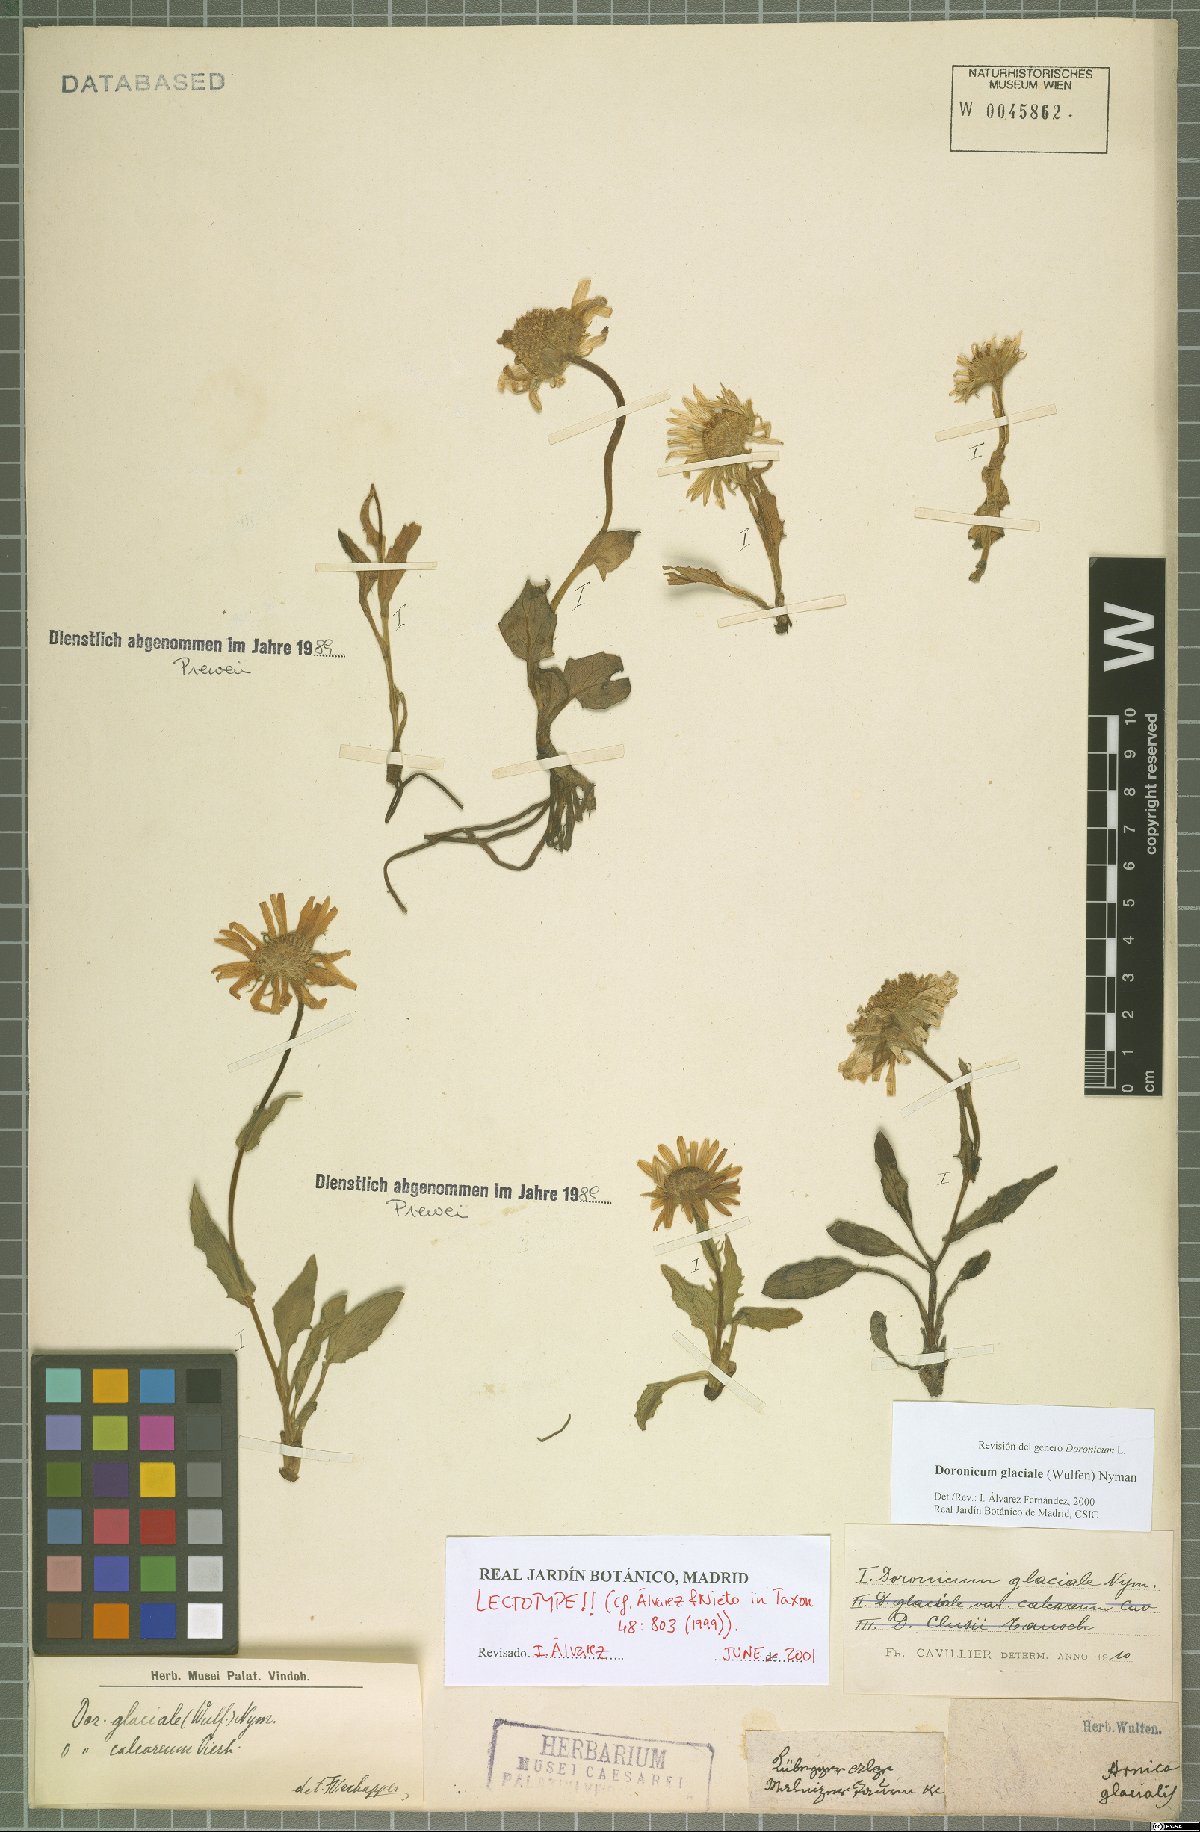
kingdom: Plantae
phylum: Tracheophyta
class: Magnoliopsida
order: Asterales
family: Asteraceae
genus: Doronicum
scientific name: Doronicum glaciale
